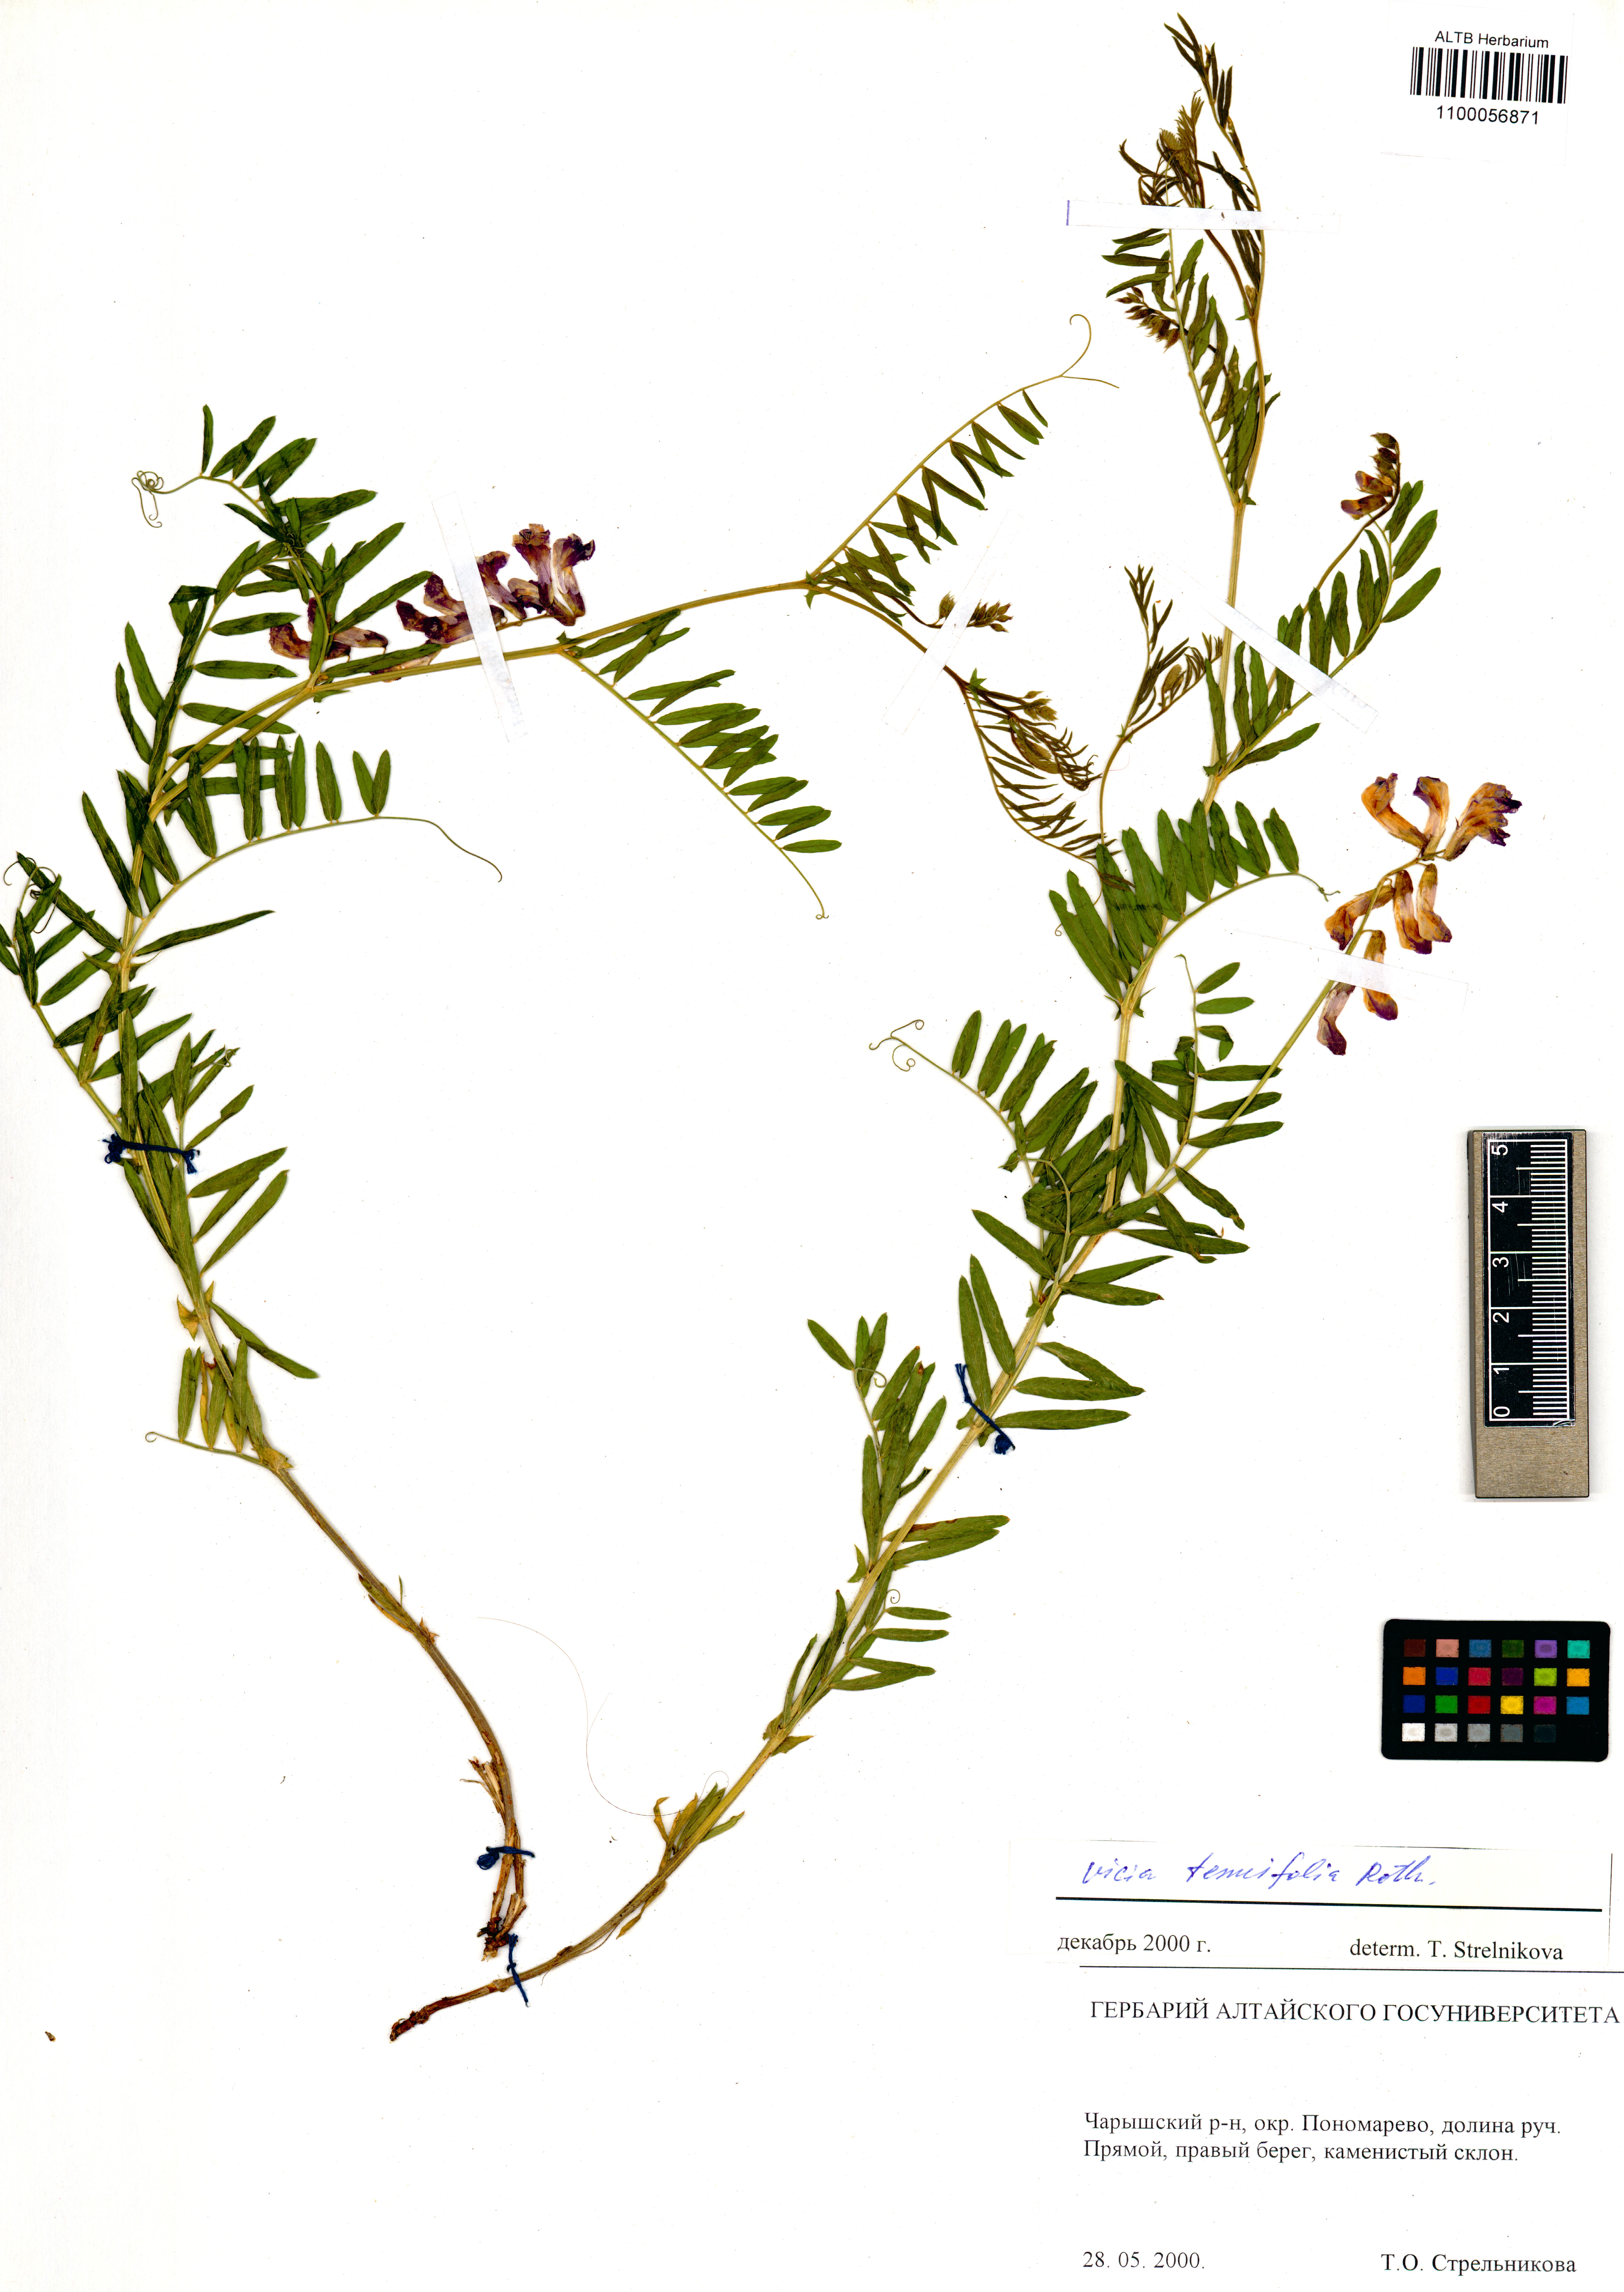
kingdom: Plantae
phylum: Tracheophyta
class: Magnoliopsida
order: Fabales
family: Fabaceae
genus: Vicia
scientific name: Vicia tenuifolia
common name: Fine-leaved vetch
